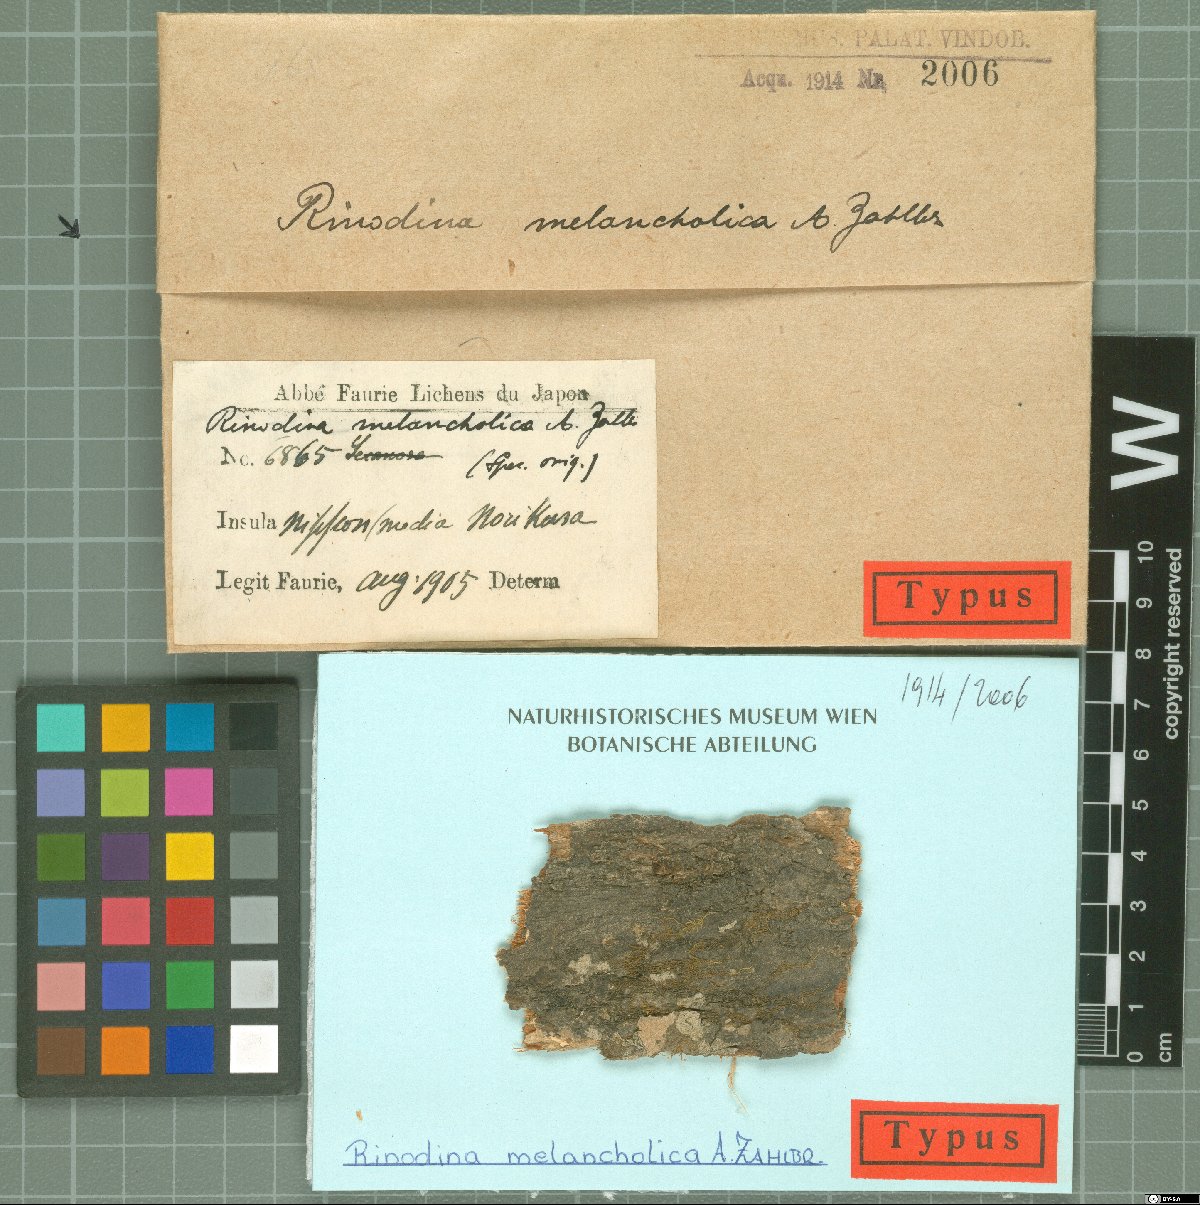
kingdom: Fungi
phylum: Ascomycota
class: Lecanoromycetes
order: Caliciales
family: Physciaceae
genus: Rinodina
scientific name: Rinodina
